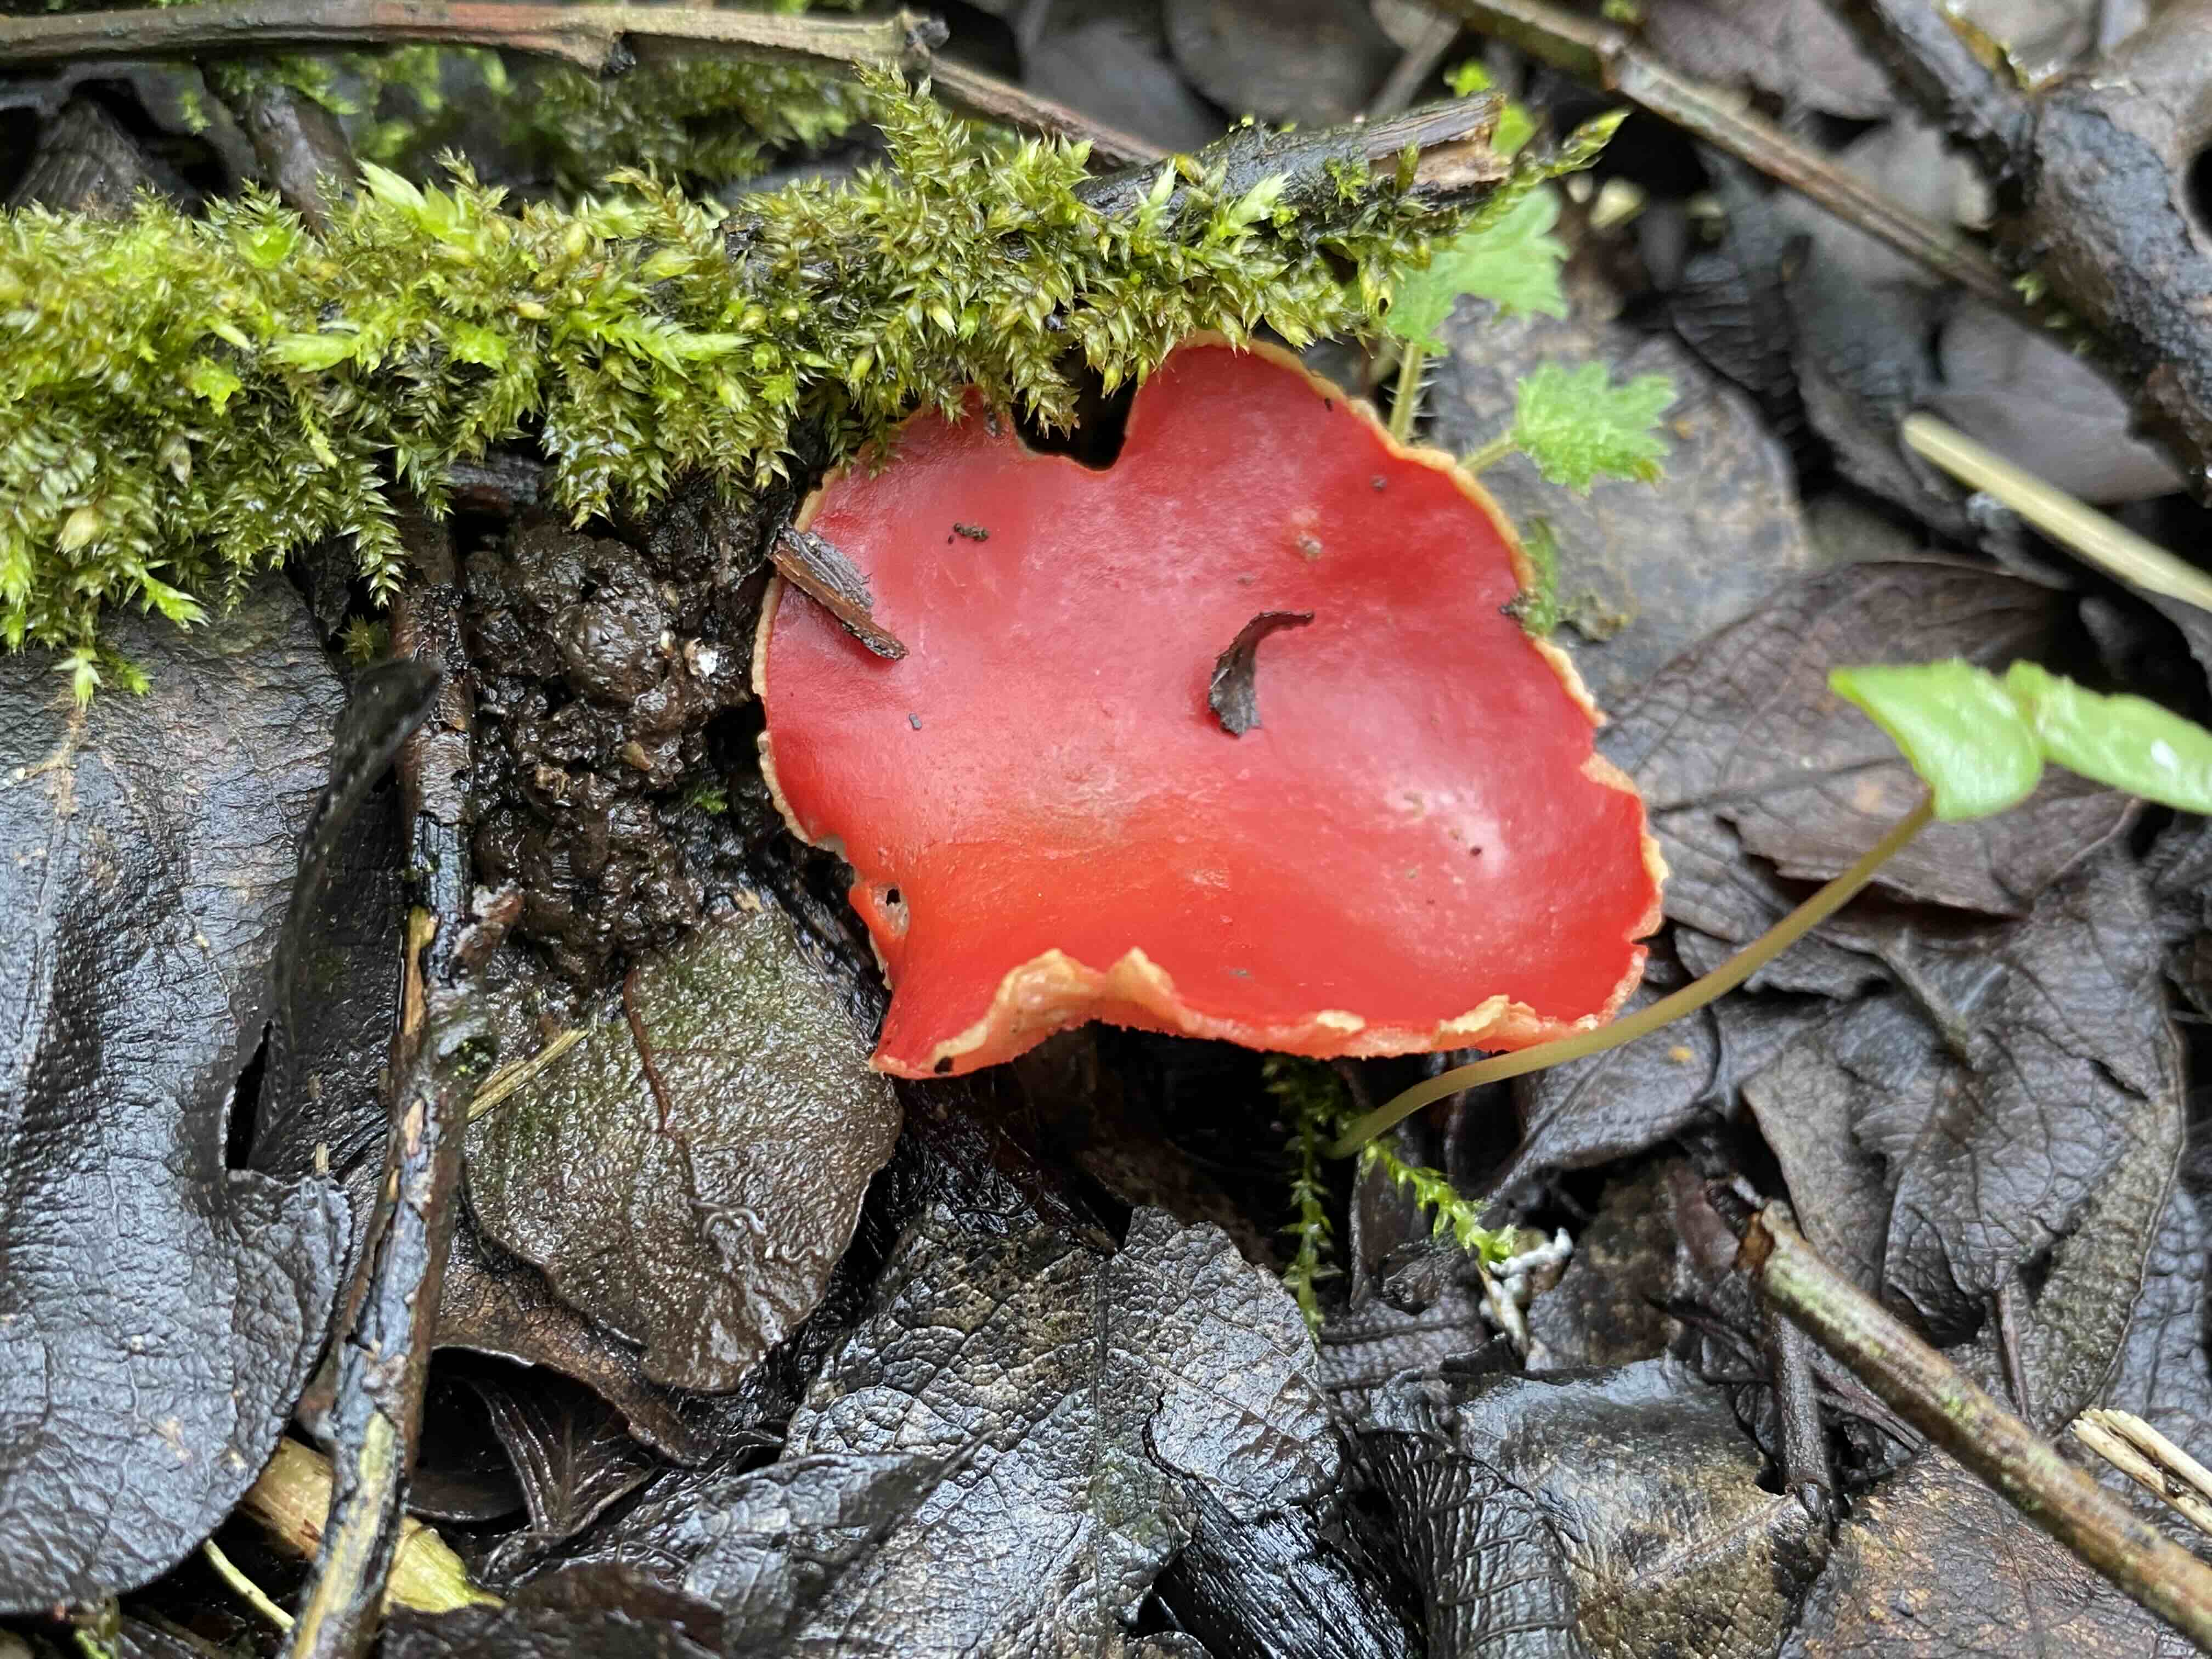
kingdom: Fungi
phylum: Ascomycota
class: Pezizomycetes
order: Pezizales
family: Sarcoscyphaceae
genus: Sarcoscypha
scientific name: Sarcoscypha austriaca
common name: krølhåret pragtbæger
